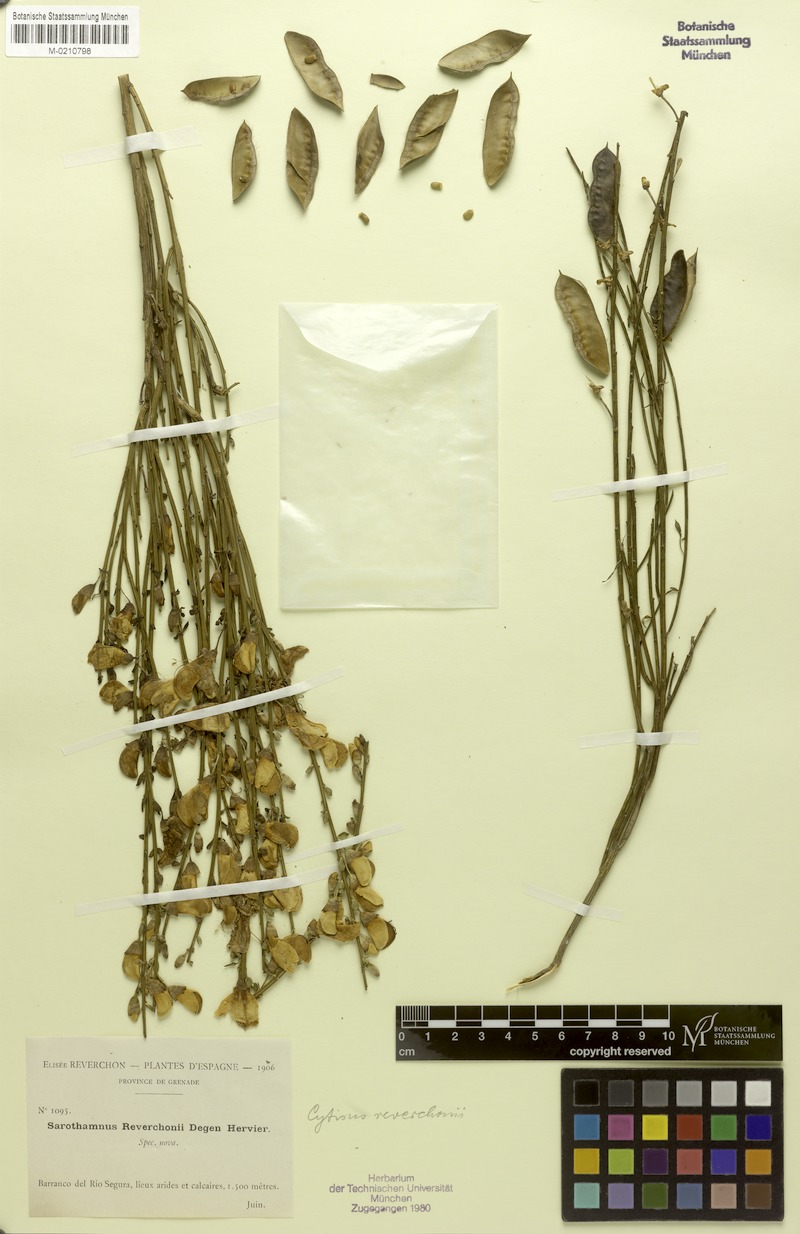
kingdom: Plantae
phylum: Tracheophyta
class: Magnoliopsida
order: Fabales
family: Fabaceae
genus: Cytisus
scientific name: Cytisus scoparius
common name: Scotch broom
